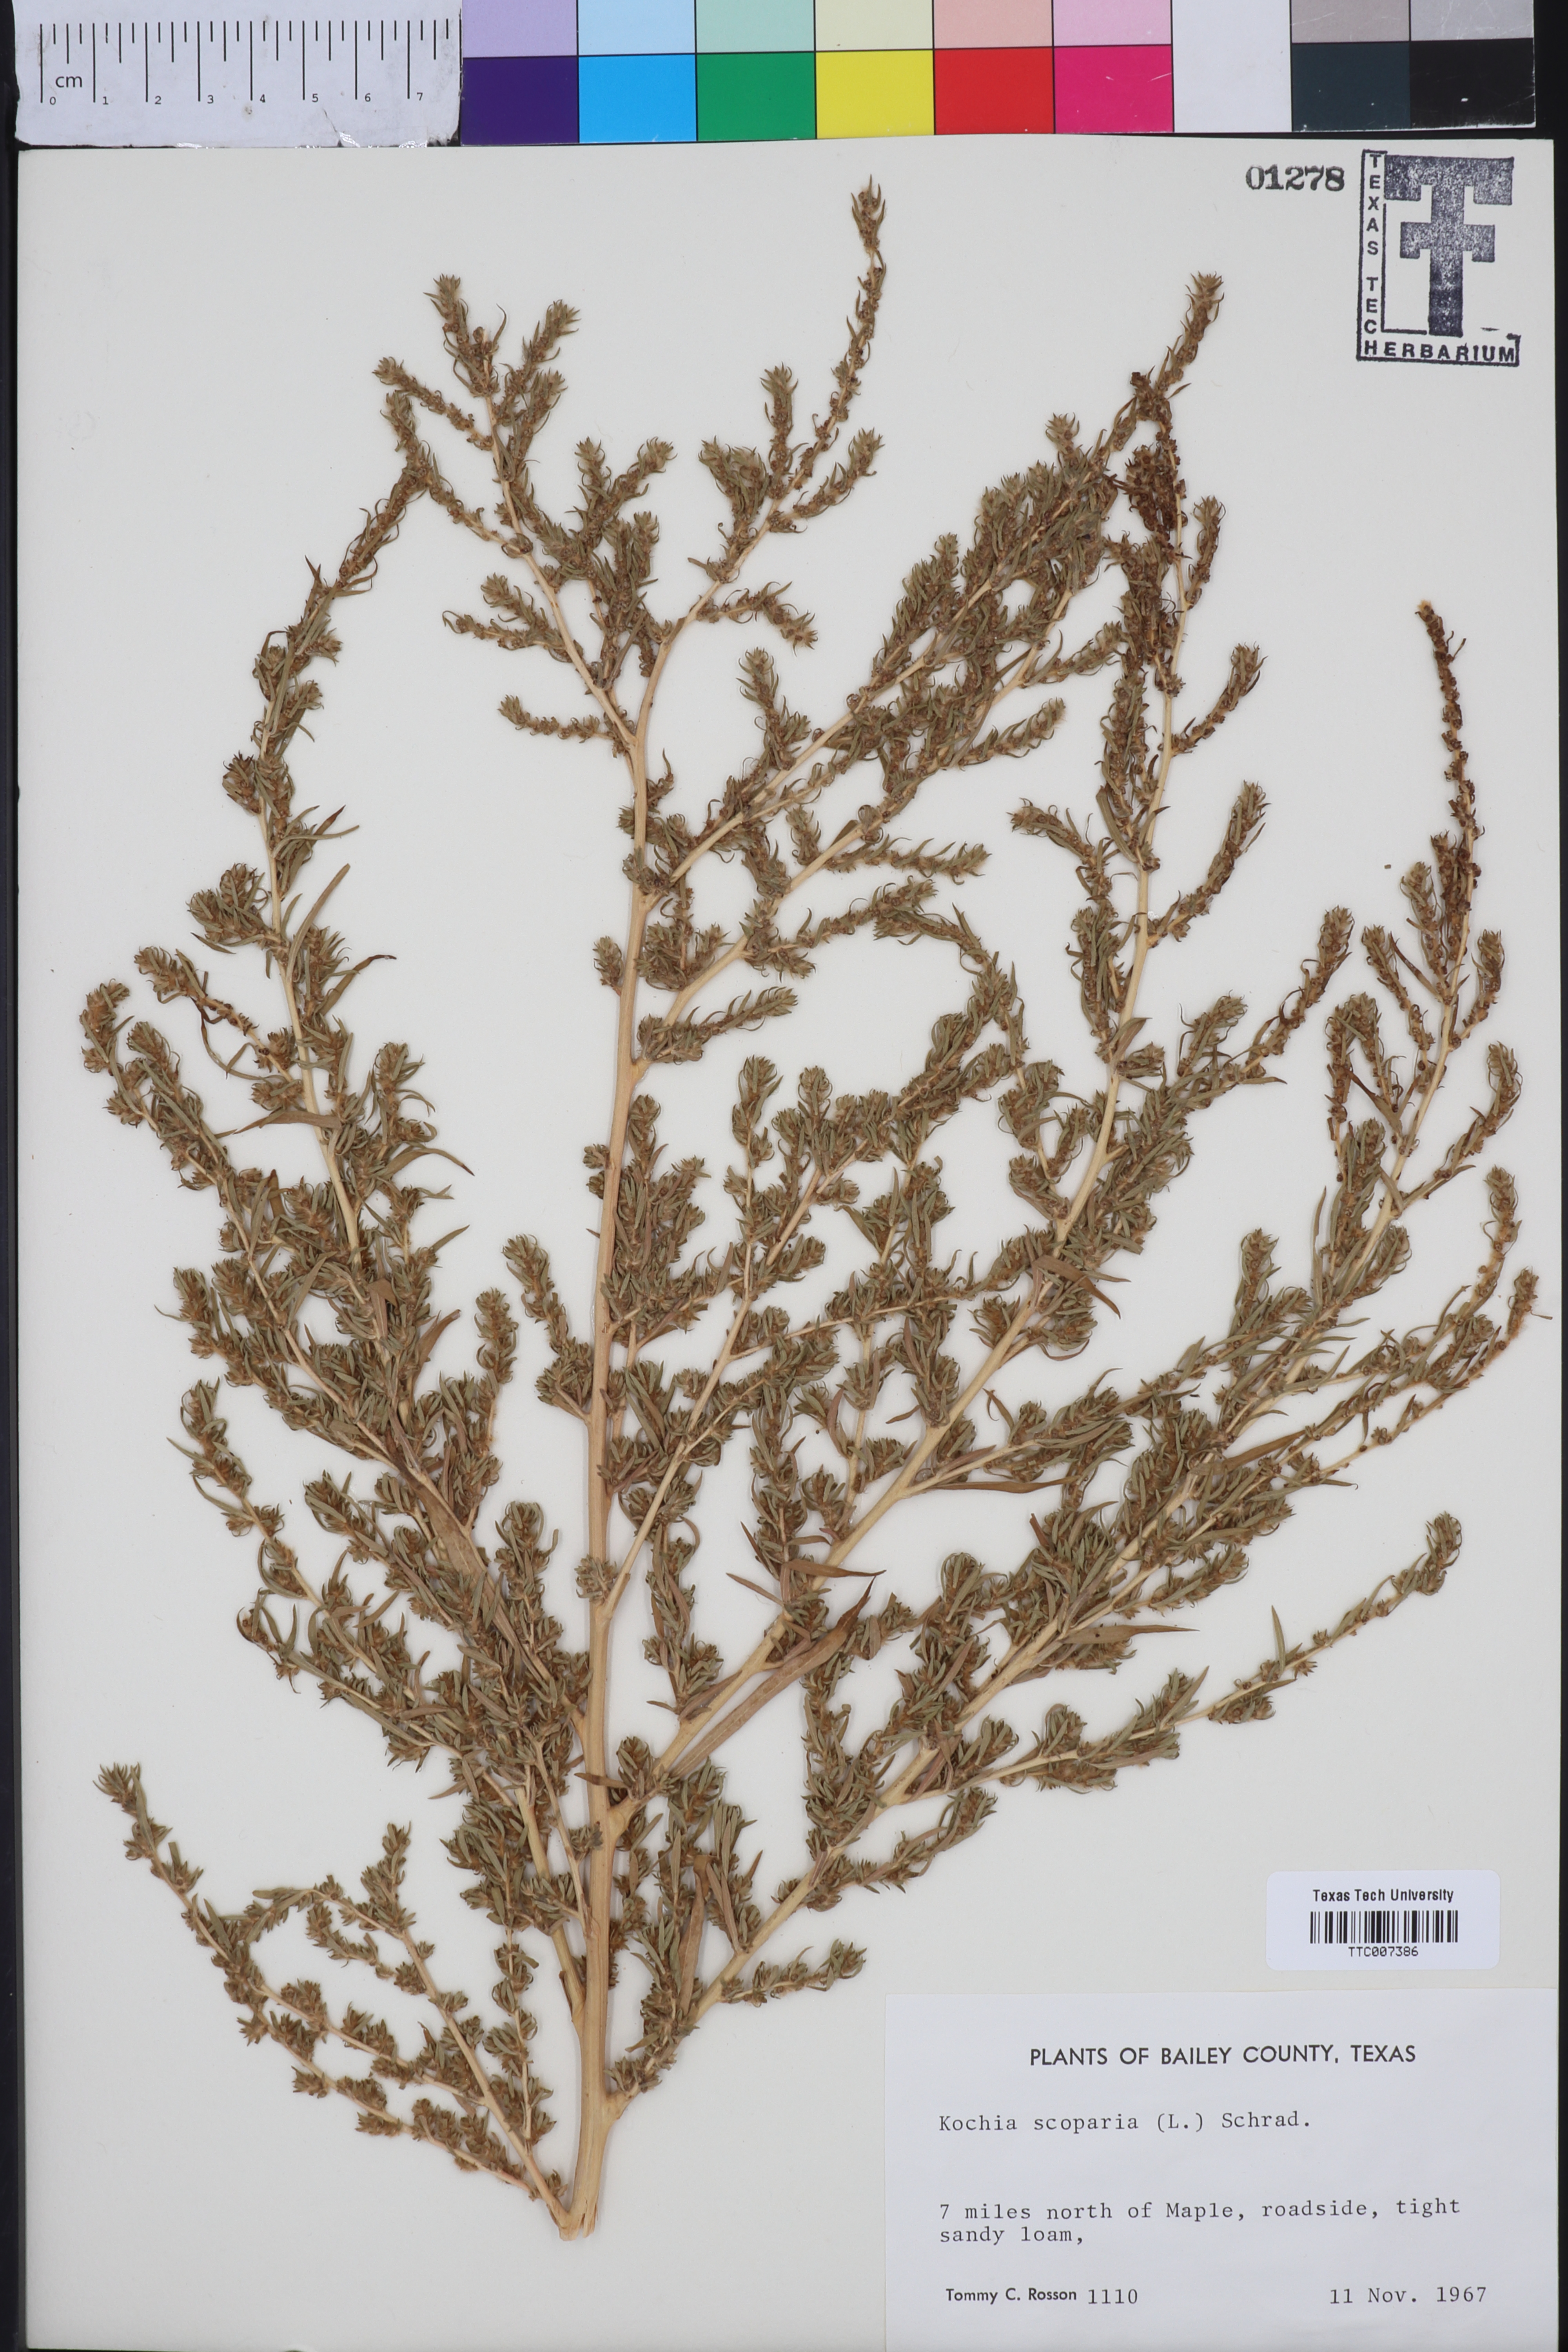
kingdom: Plantae
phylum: Tracheophyta
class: Magnoliopsida
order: Caryophyllales
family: Amaranthaceae
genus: Bassia
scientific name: Bassia scoparia
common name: Belvedere
